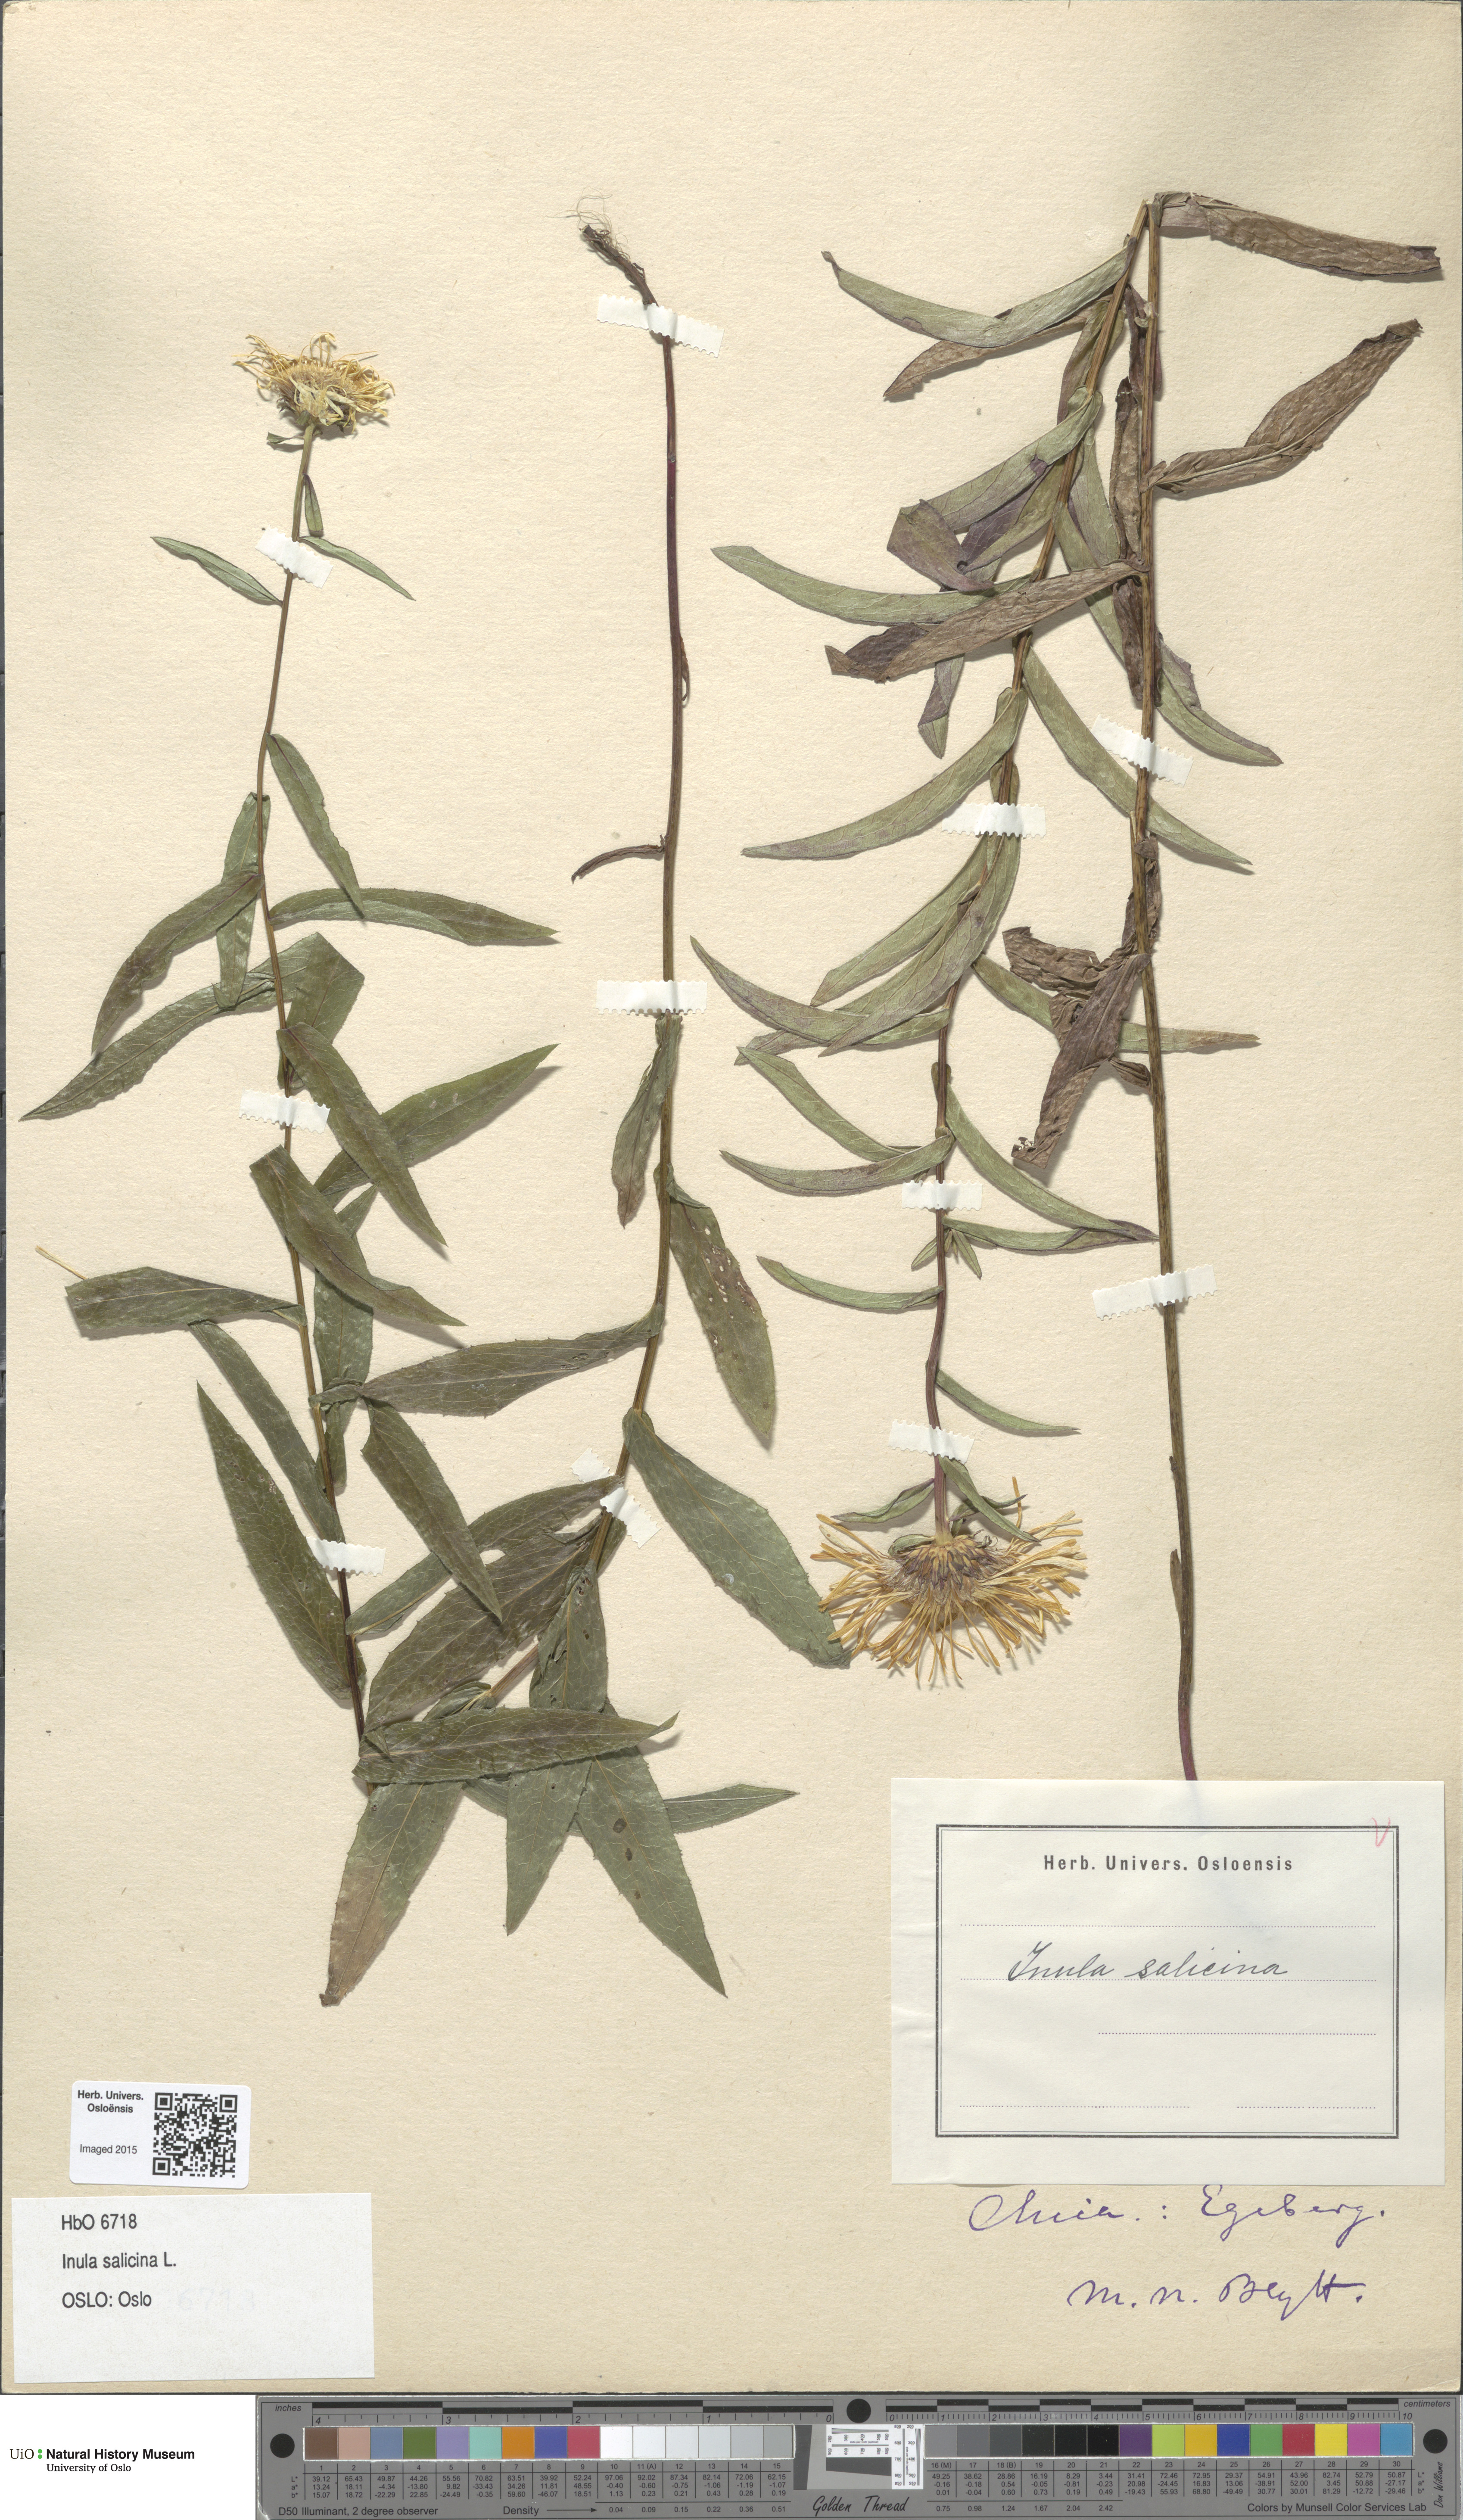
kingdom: Plantae
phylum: Tracheophyta
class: Magnoliopsida
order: Asterales
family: Asteraceae
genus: Pentanema
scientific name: Pentanema salicinum
